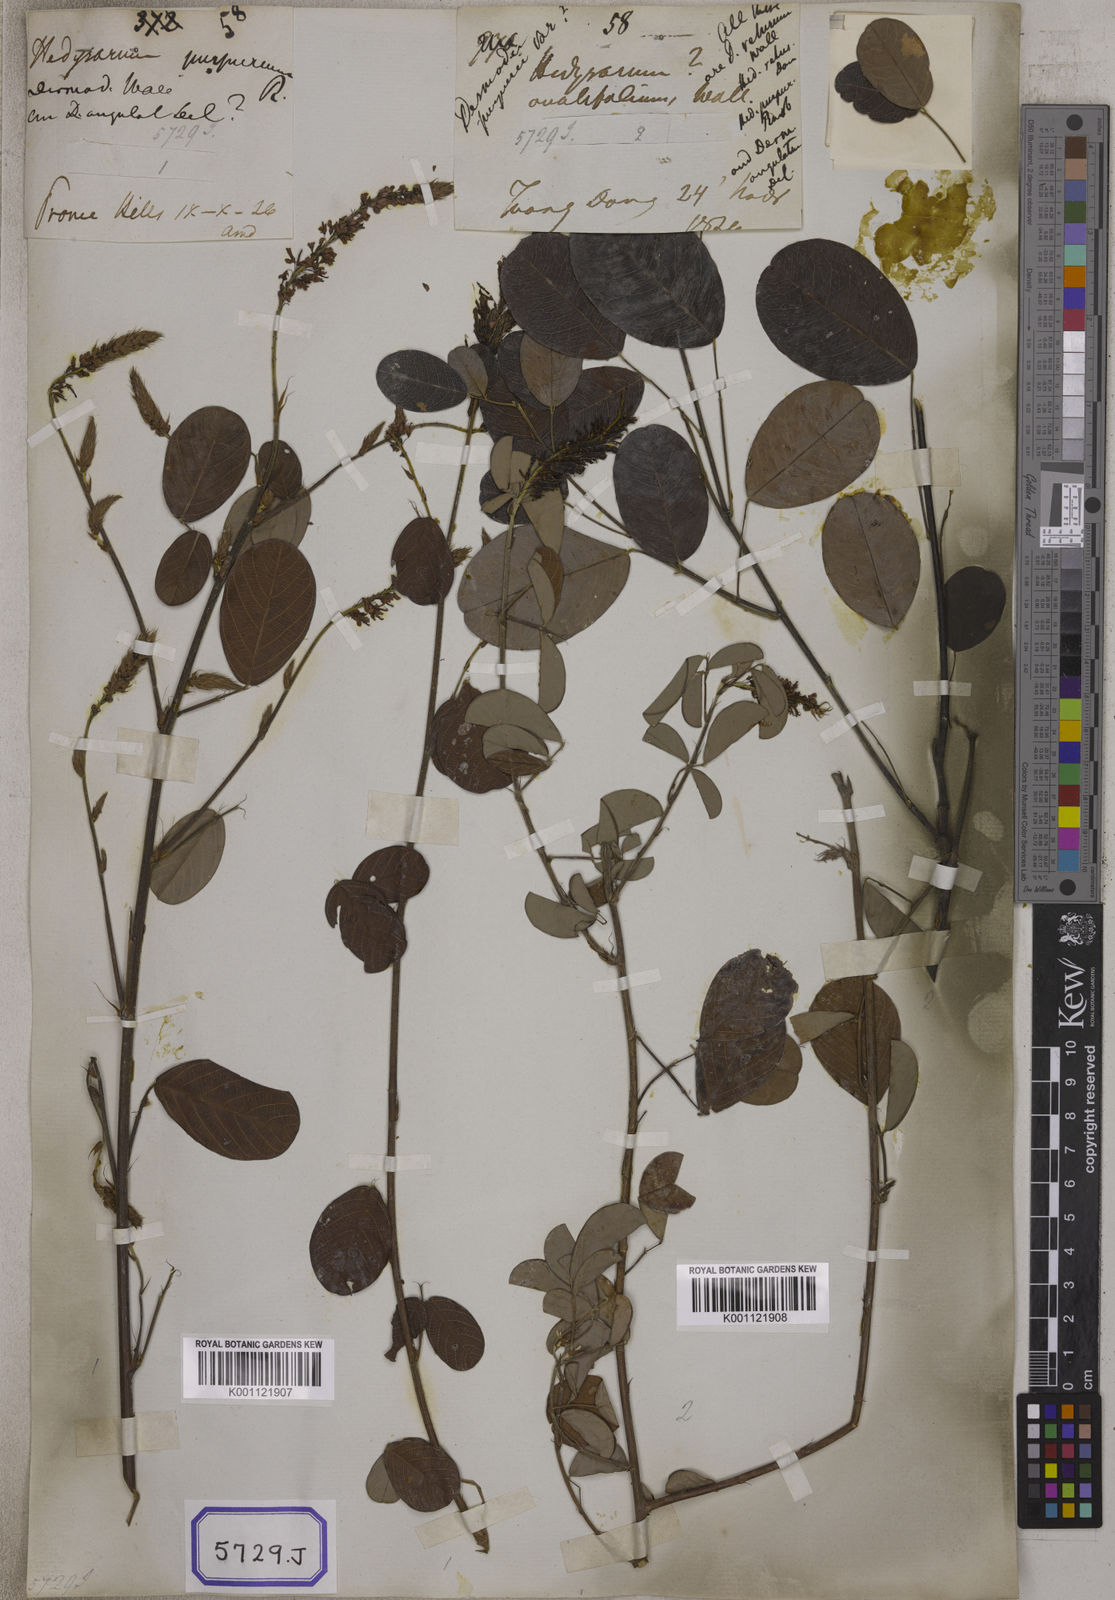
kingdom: Plantae
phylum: Tracheophyta
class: Magnoliopsida
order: Fabales
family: Fabaceae
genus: Desmodium
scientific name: Desmodium
